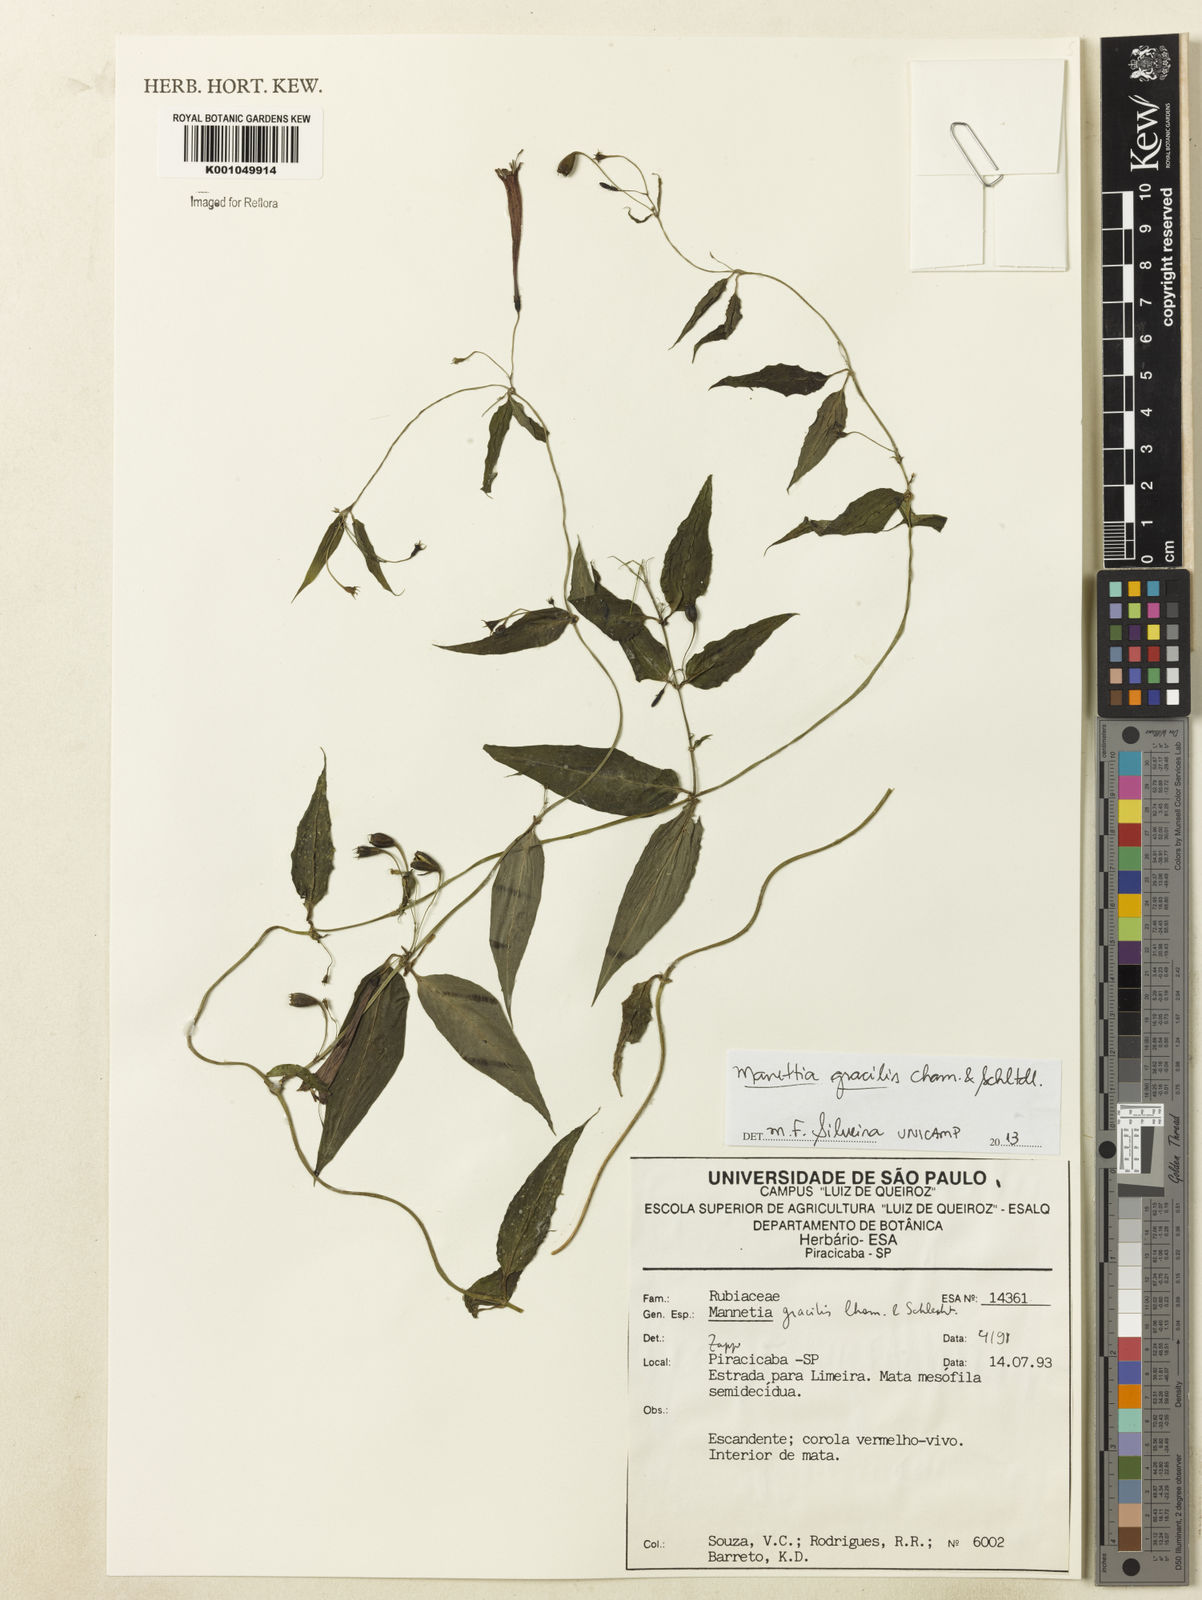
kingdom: Plantae
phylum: Tracheophyta
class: Magnoliopsida
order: Gentianales
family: Rubiaceae
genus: Manettia
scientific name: Manettia gracilis
